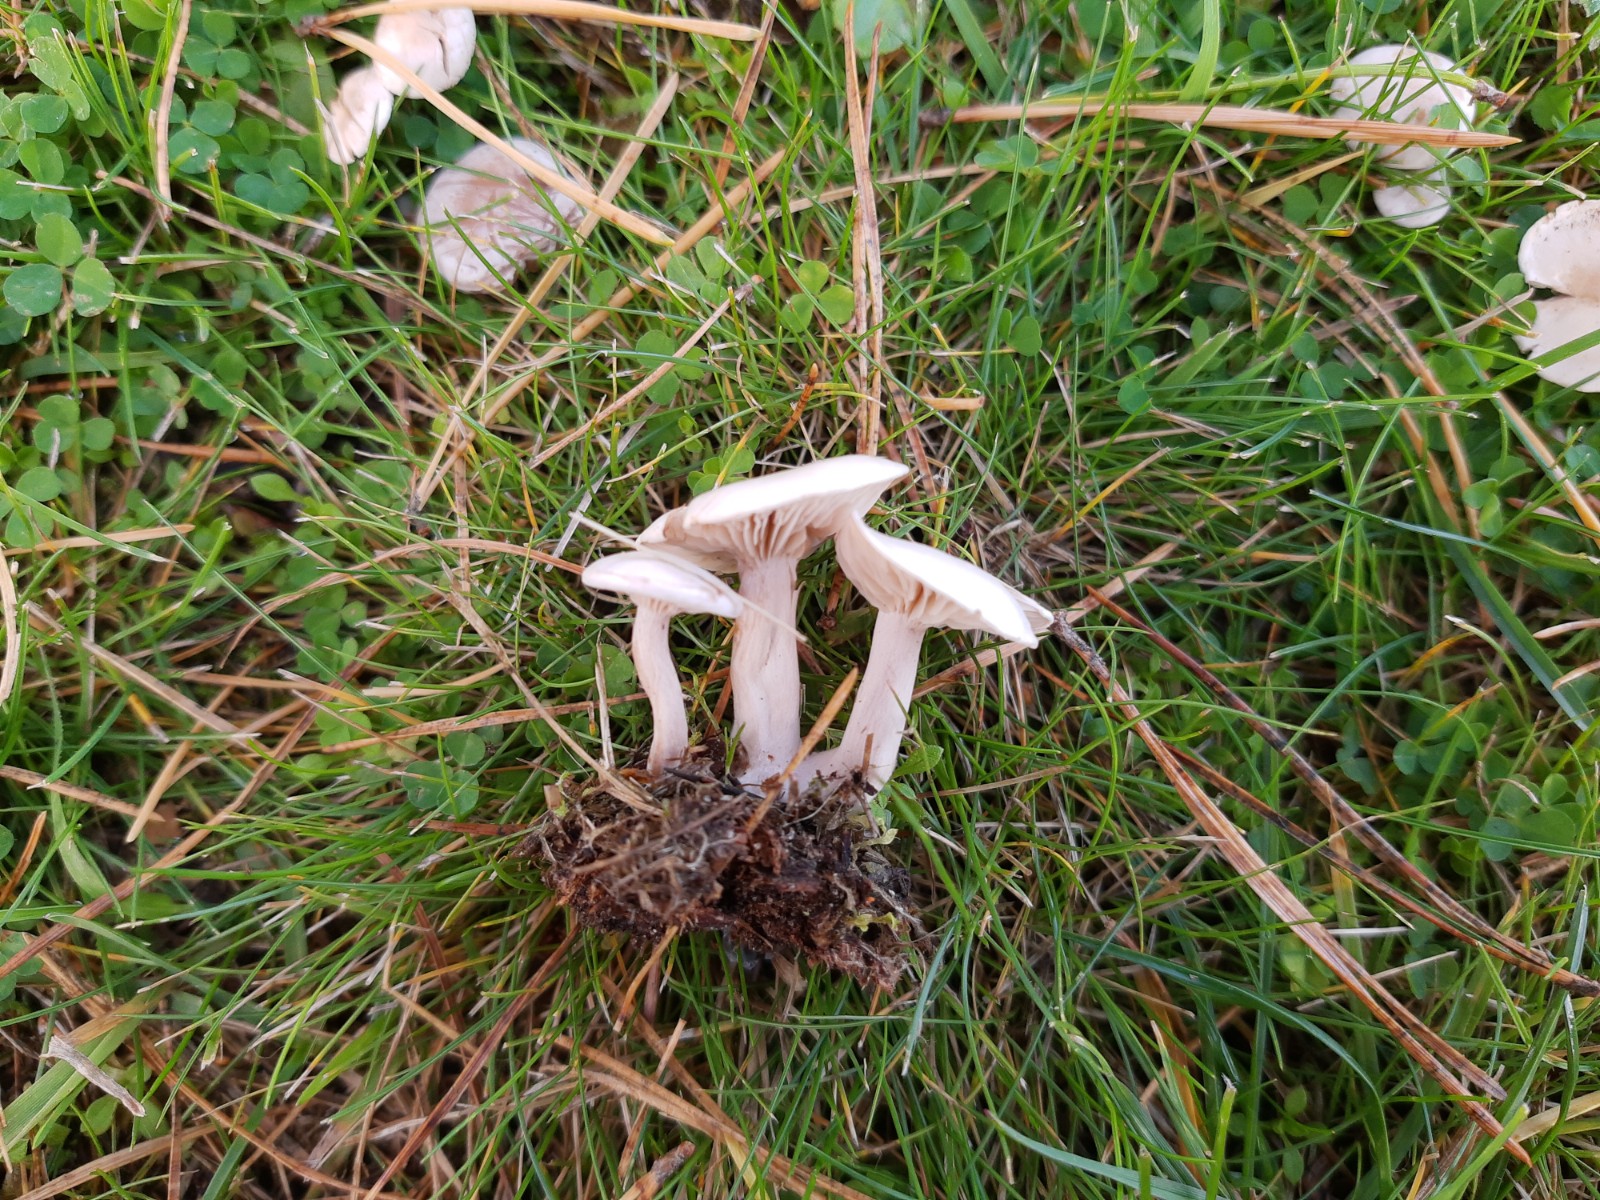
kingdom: Fungi
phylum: Basidiomycota
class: Agaricomycetes
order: Agaricales
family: Tricholomataceae
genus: Clitocybe
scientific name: Clitocybe
